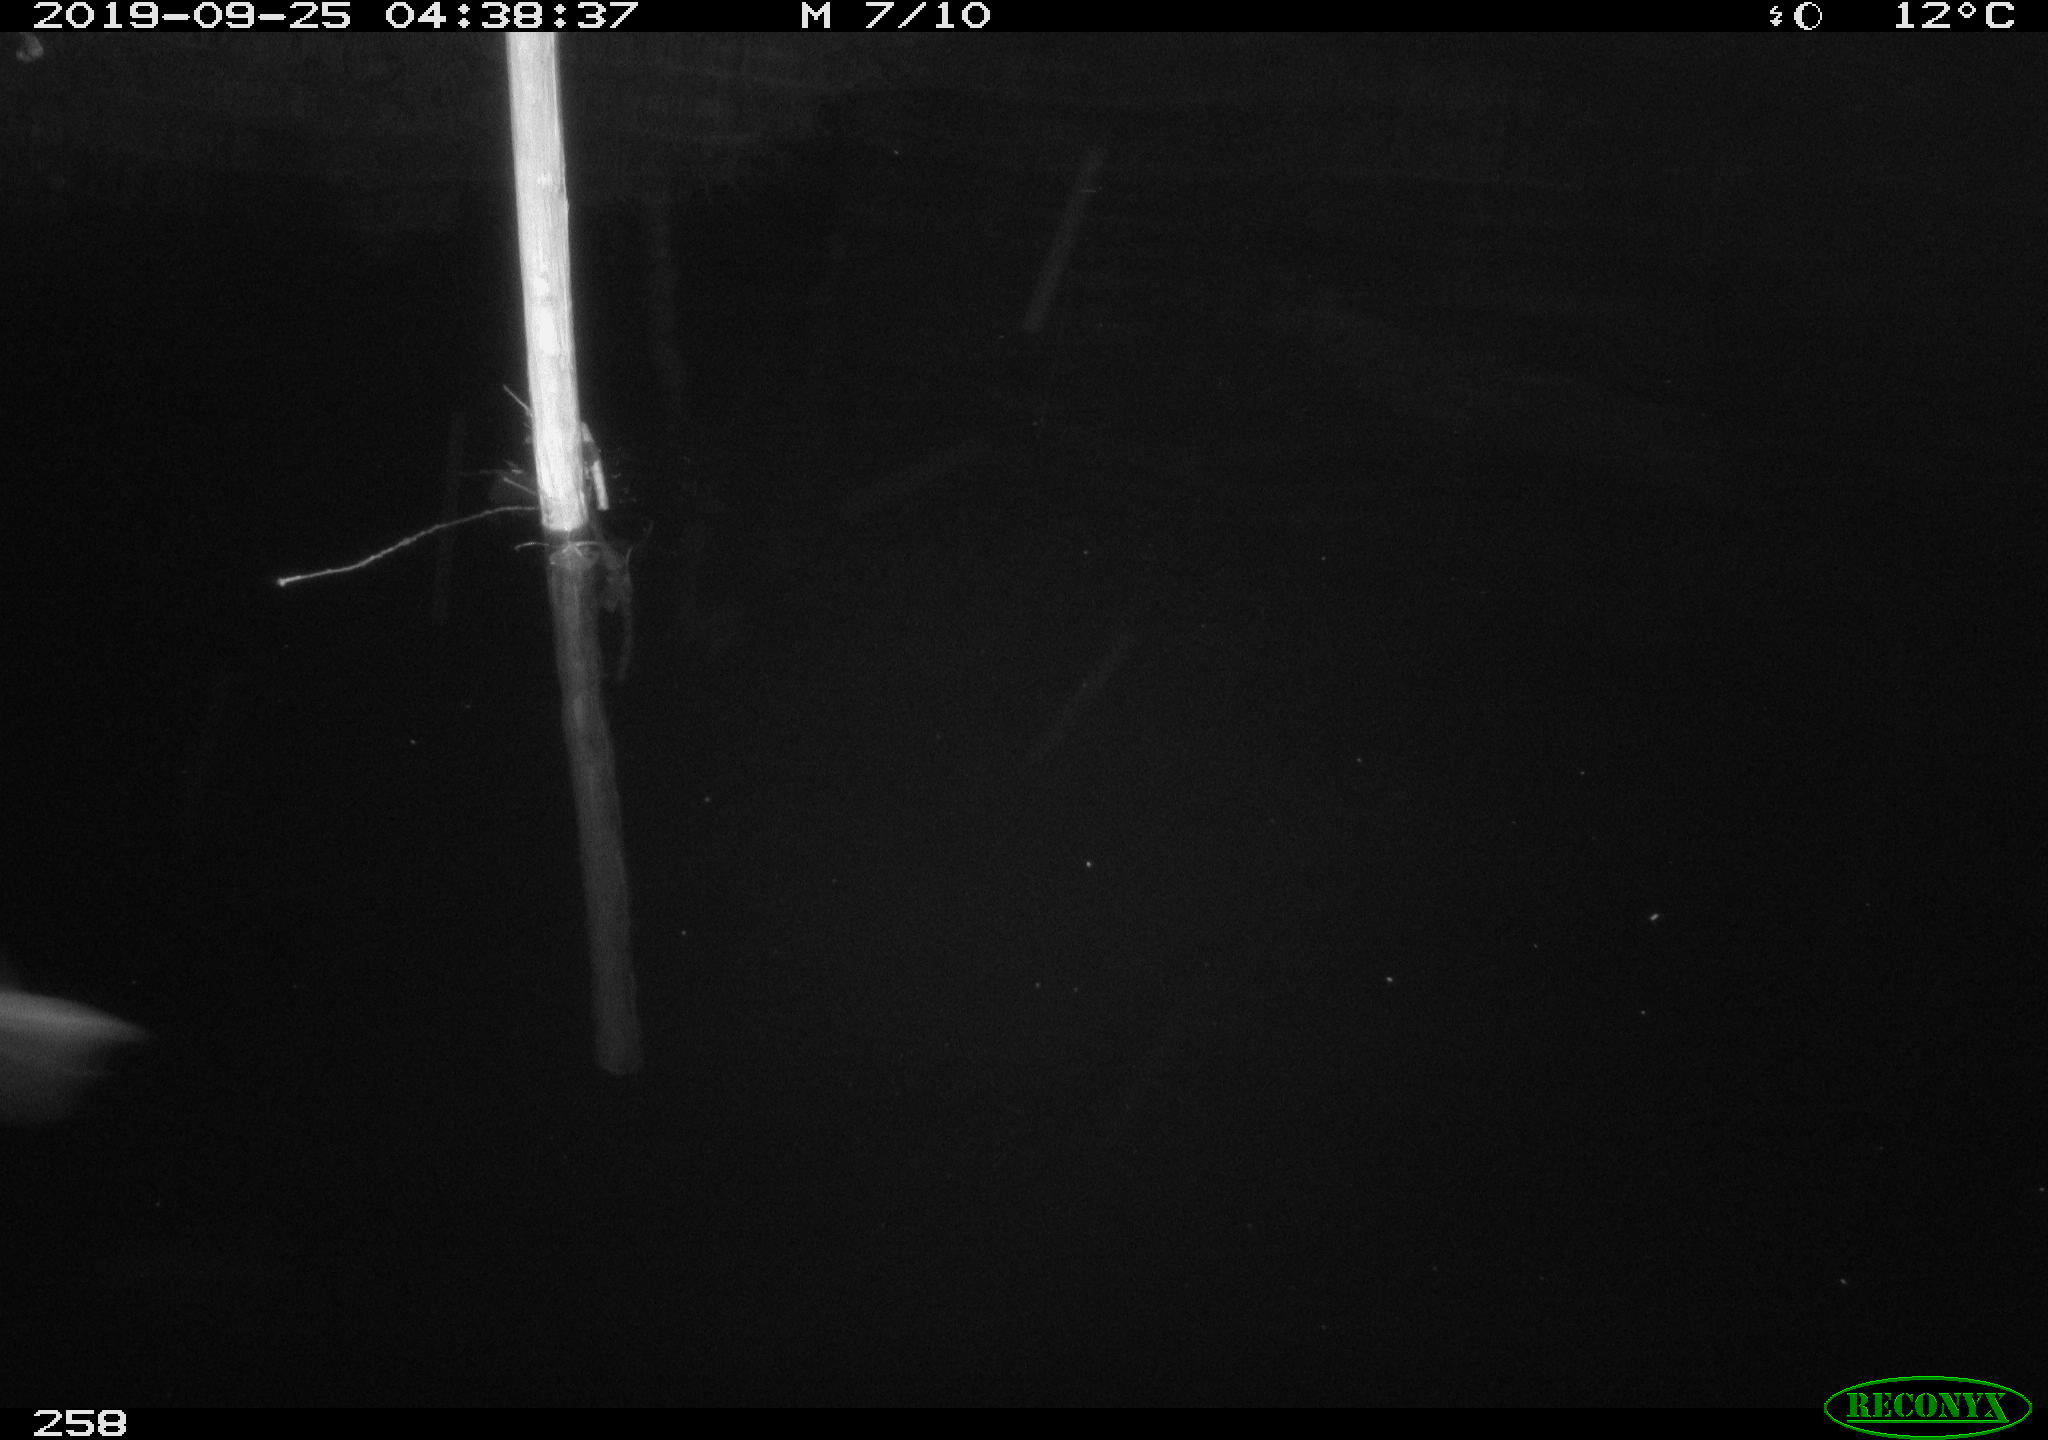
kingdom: Animalia
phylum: Chordata
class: Aves
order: Anseriformes
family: Anatidae
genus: Anas
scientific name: Anas platyrhynchos
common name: Mallard
